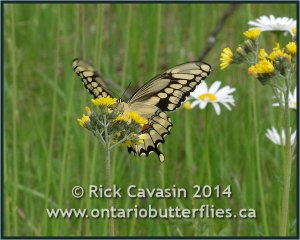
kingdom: Animalia
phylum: Arthropoda
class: Insecta
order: Lepidoptera
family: Papilionidae
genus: Papilio
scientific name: Papilio cresphontes
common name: Eastern Giant Swallowtail
